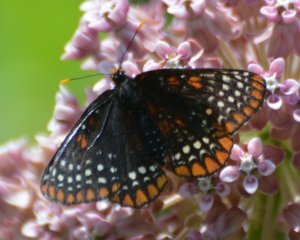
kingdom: Animalia
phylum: Arthropoda
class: Insecta
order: Lepidoptera
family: Nymphalidae
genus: Euphydryas
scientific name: Euphydryas phaeton
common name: Baltimore Checkerspot
